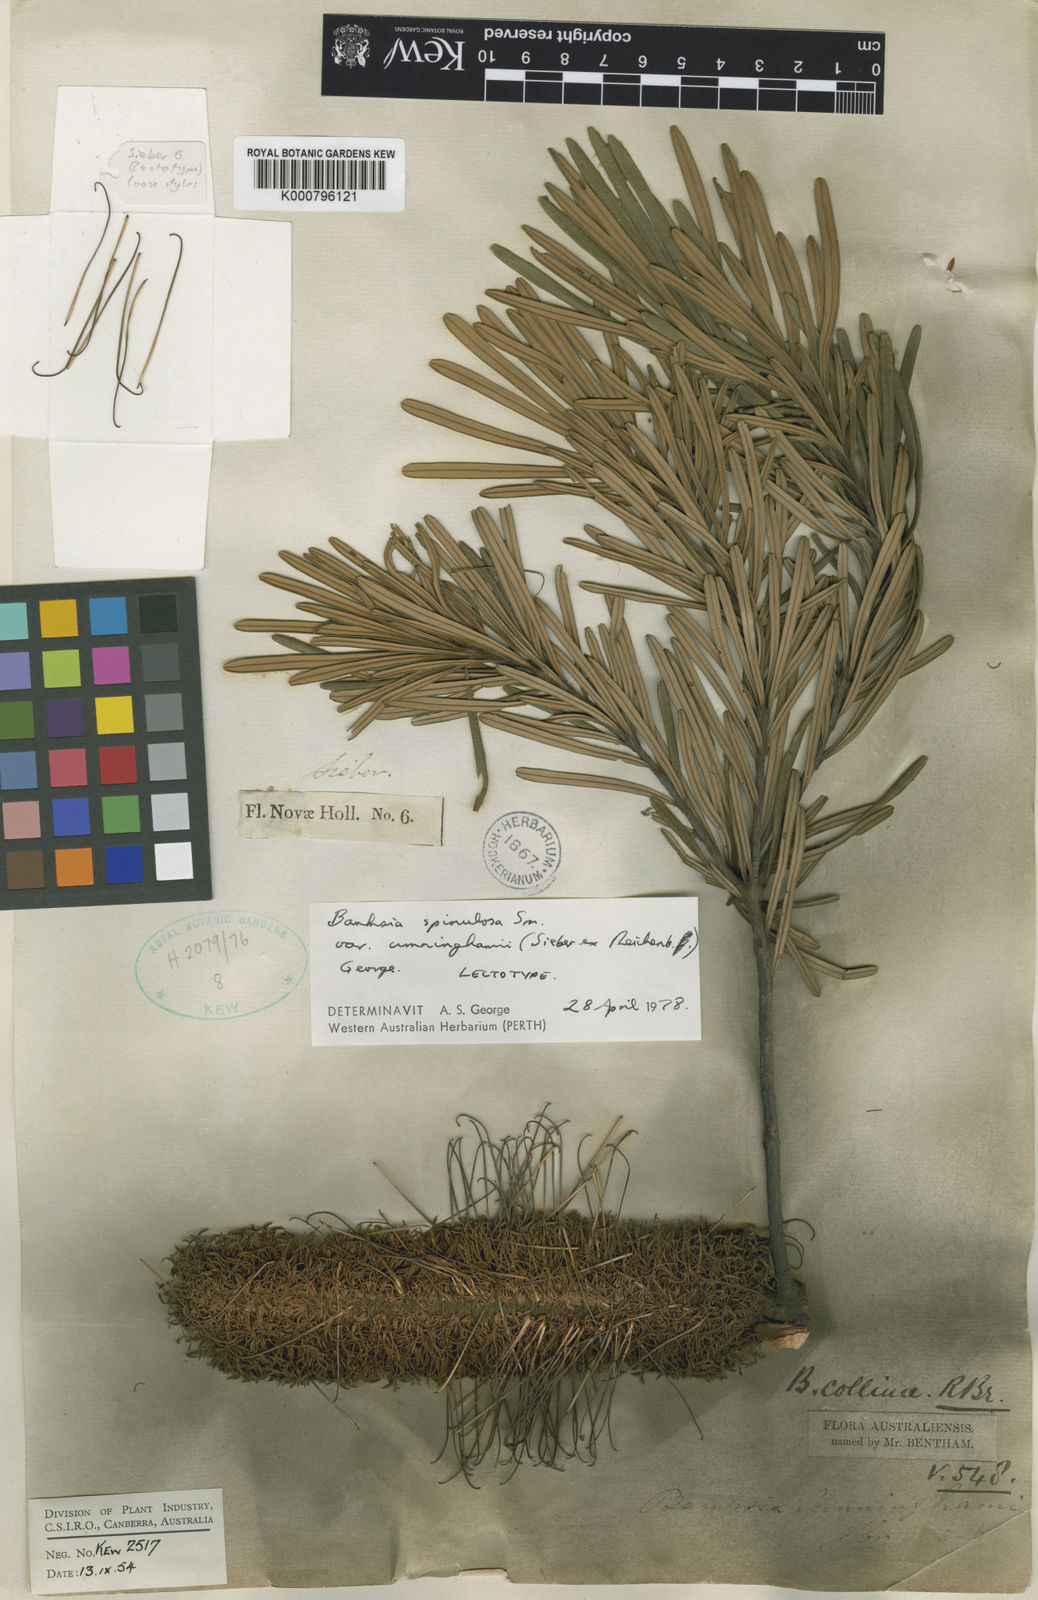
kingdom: Plantae
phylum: Tracheophyta
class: Magnoliopsida
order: Proteales
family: Proteaceae
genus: Banksia
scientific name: Banksia spinulosa
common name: Hairpin banksia
